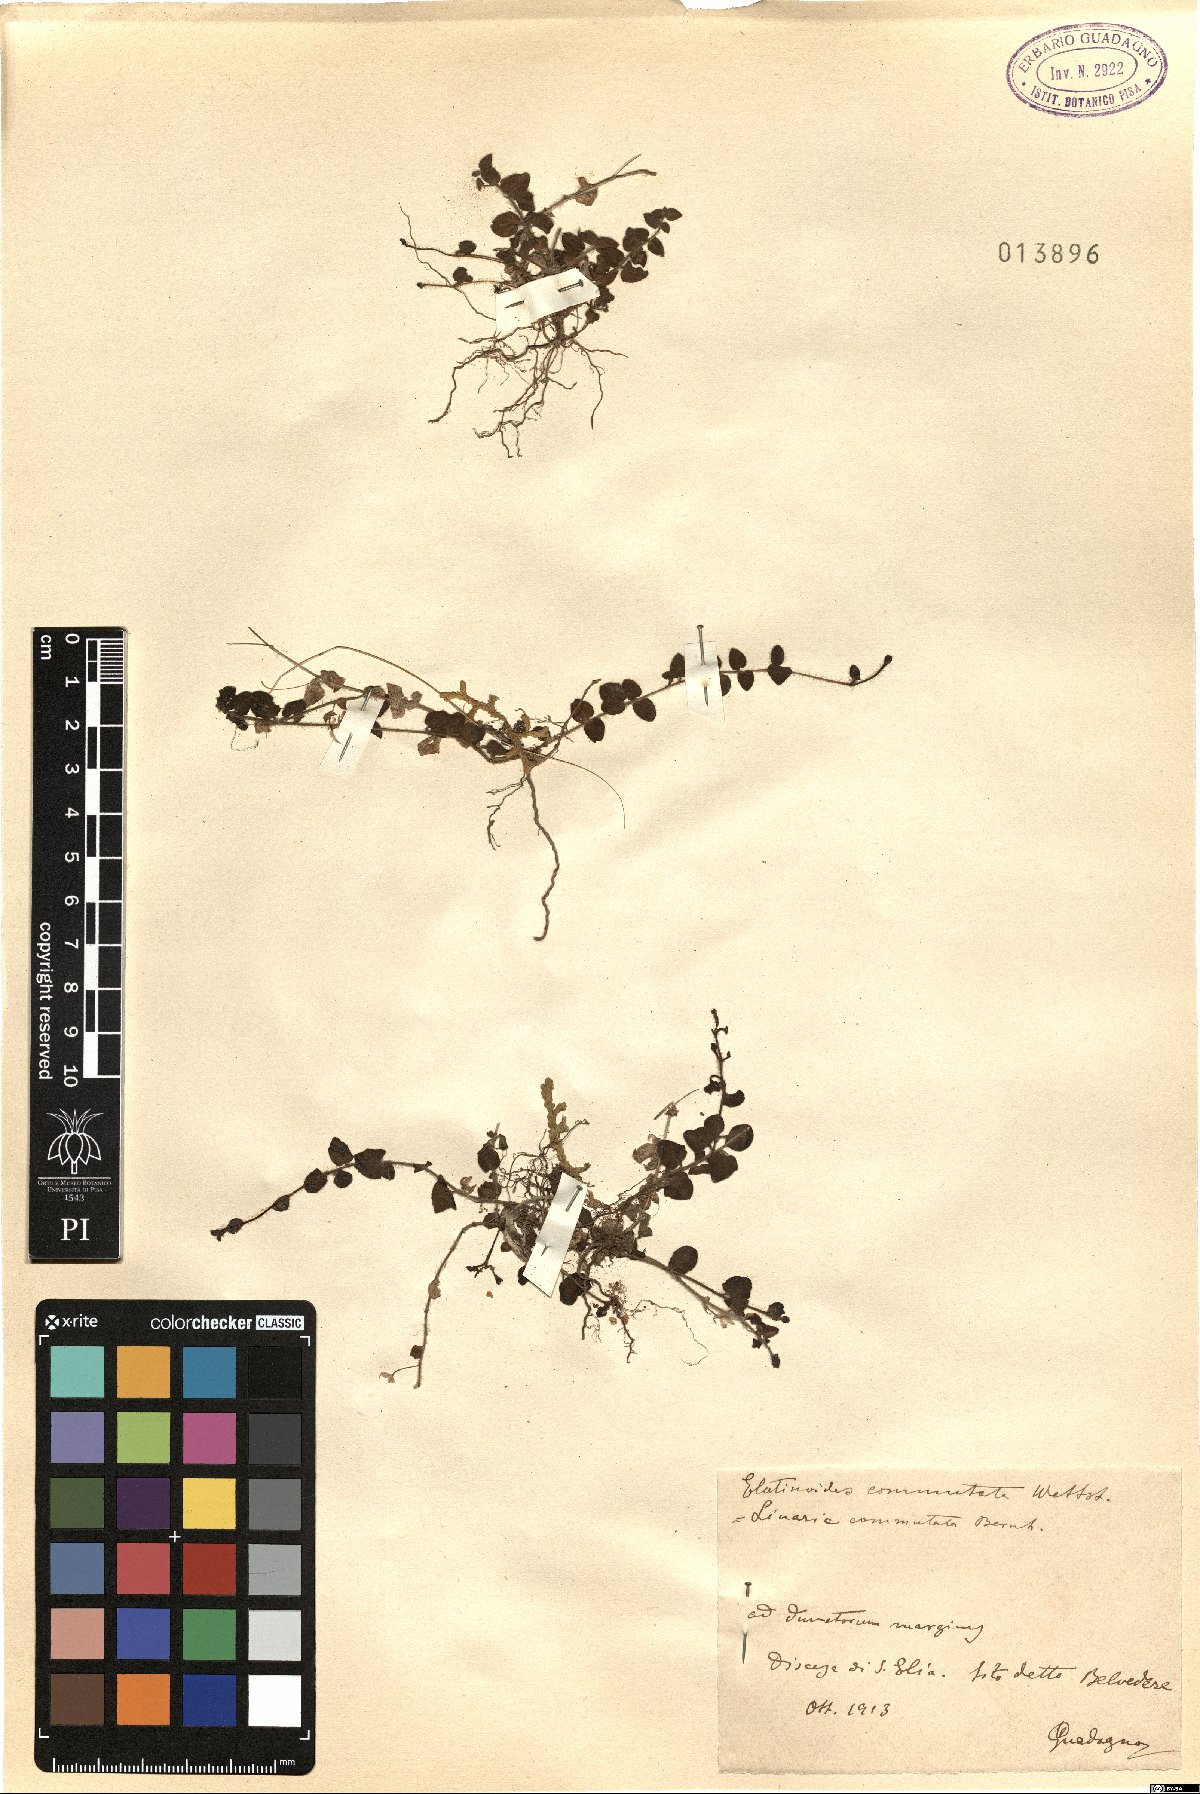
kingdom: Plantae
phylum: Tracheophyta
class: Magnoliopsida
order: Lamiales
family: Plantaginaceae
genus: Kickxia
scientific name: Kickxia elatine
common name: Sharp-leaved fluellen
